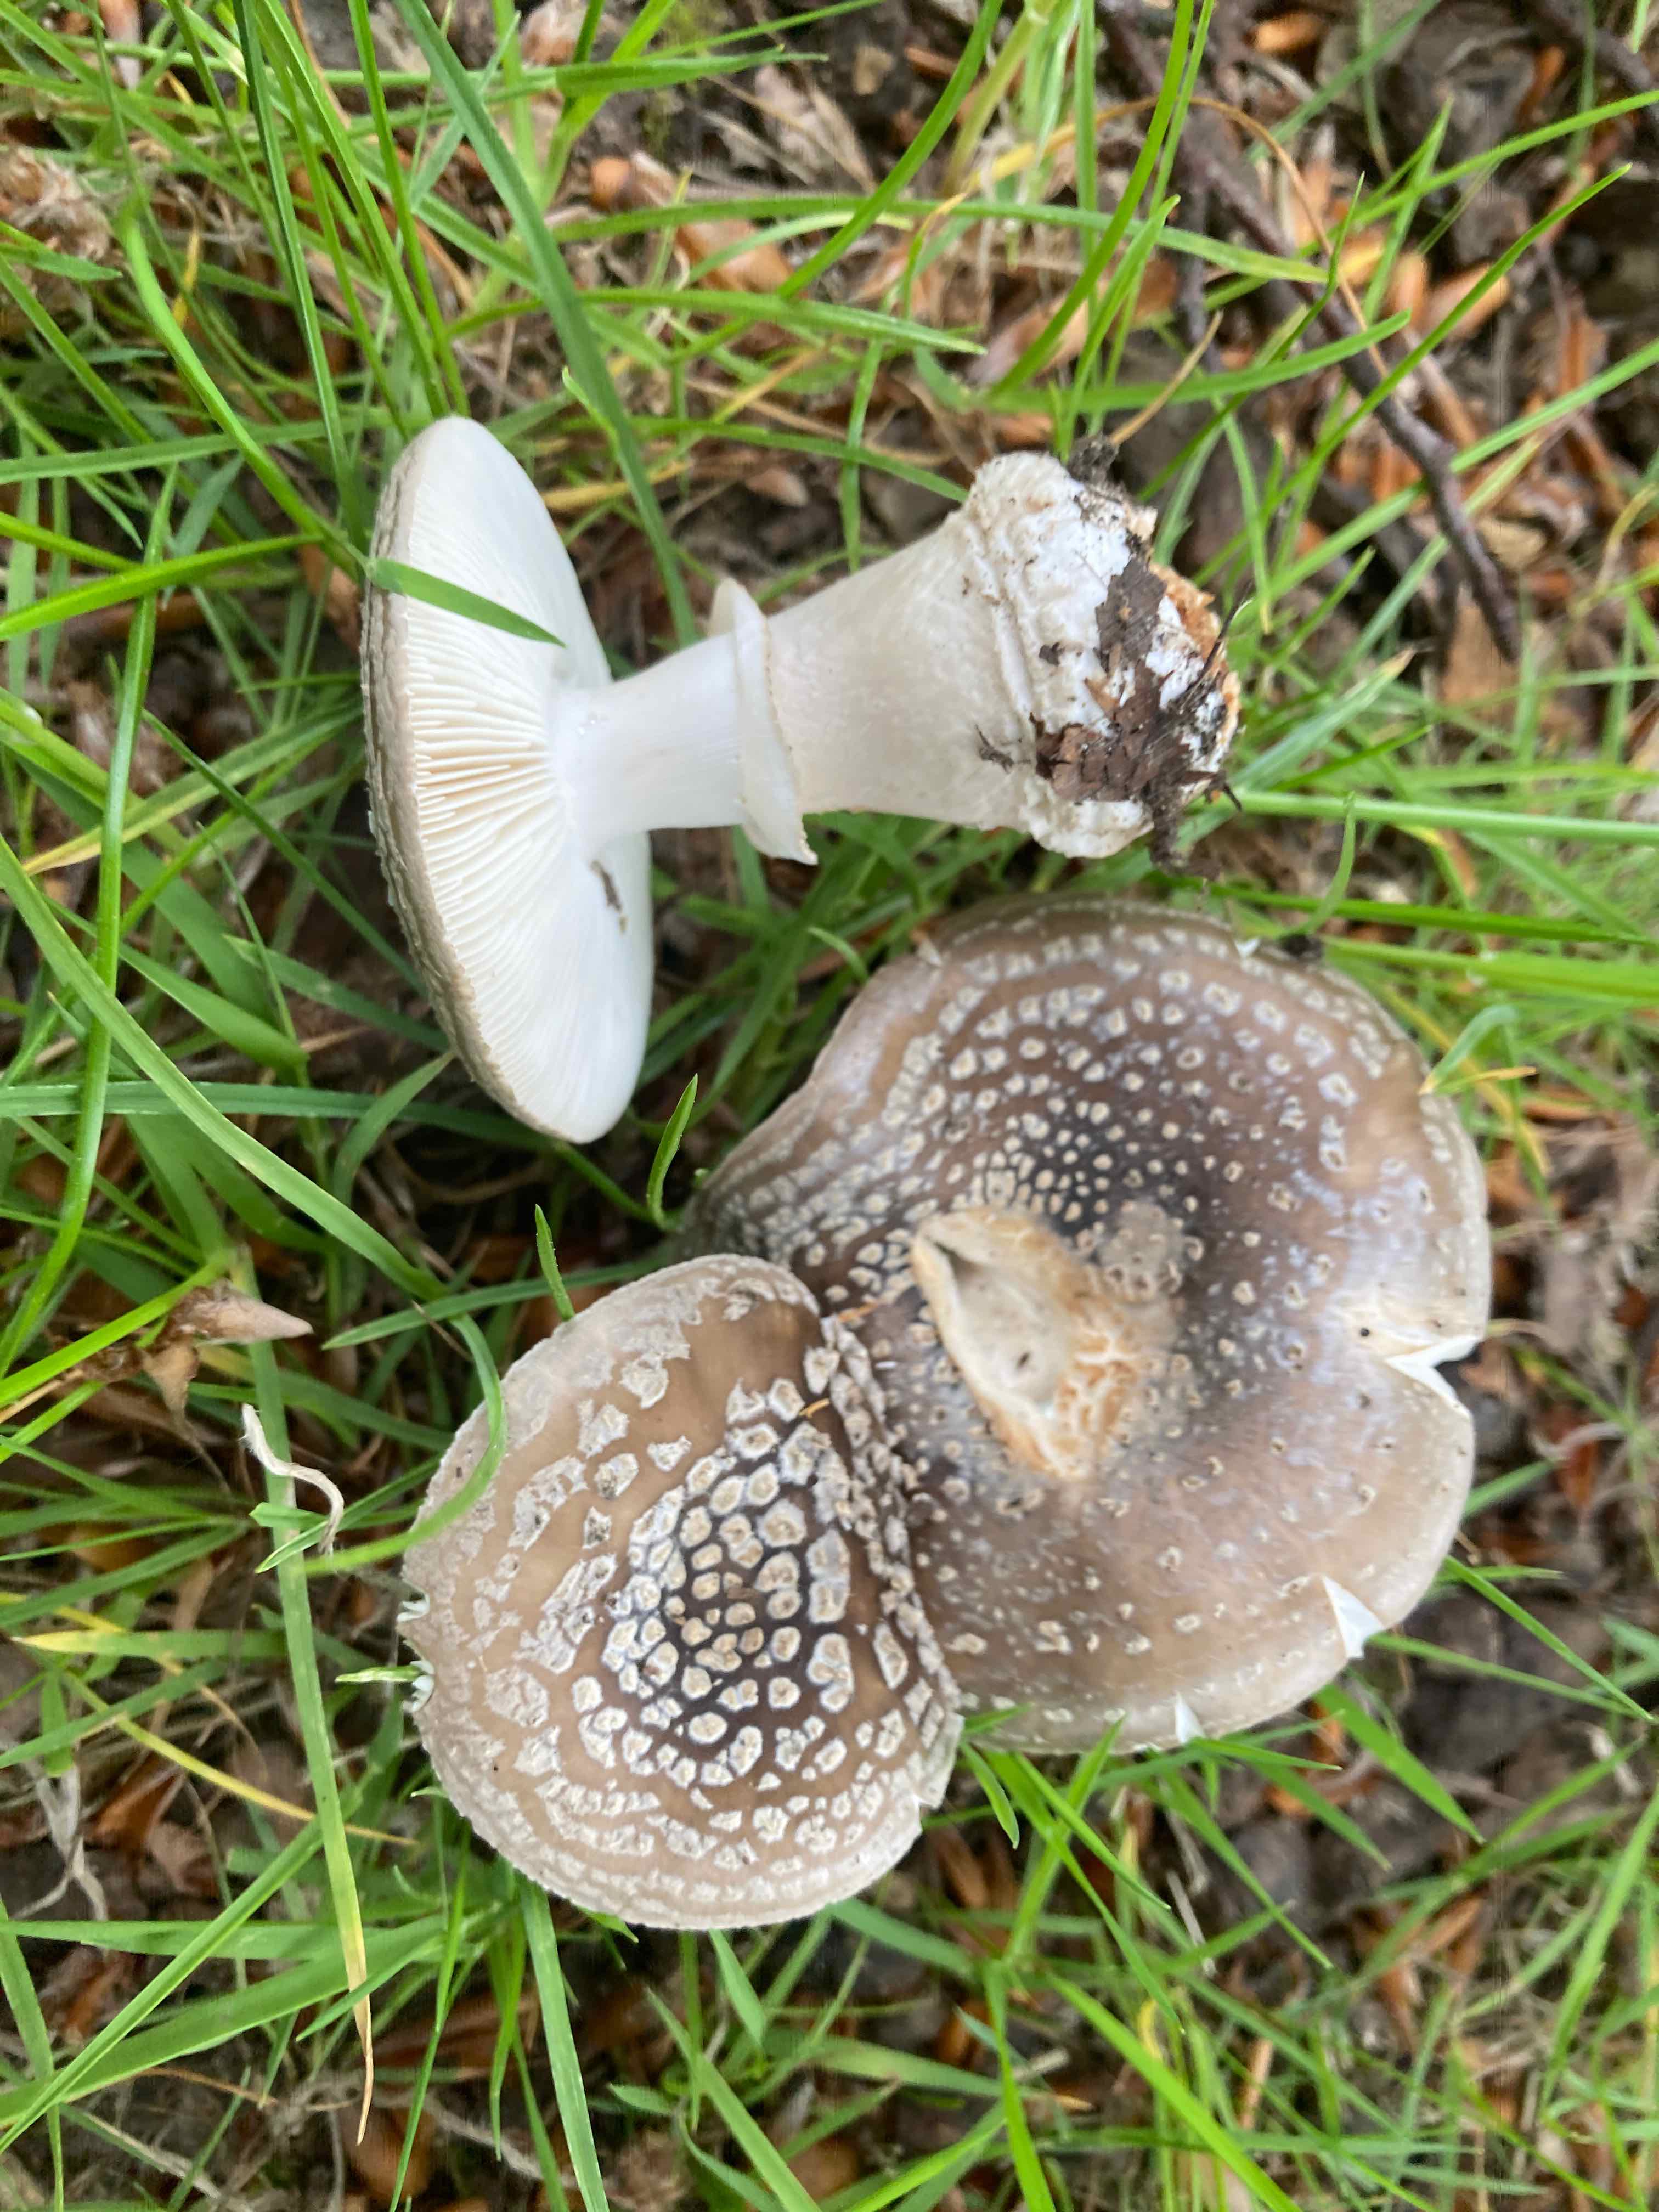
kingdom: Fungi
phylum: Basidiomycota
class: Agaricomycetes
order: Agaricales
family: Amanitaceae
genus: Amanita
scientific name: Amanita
